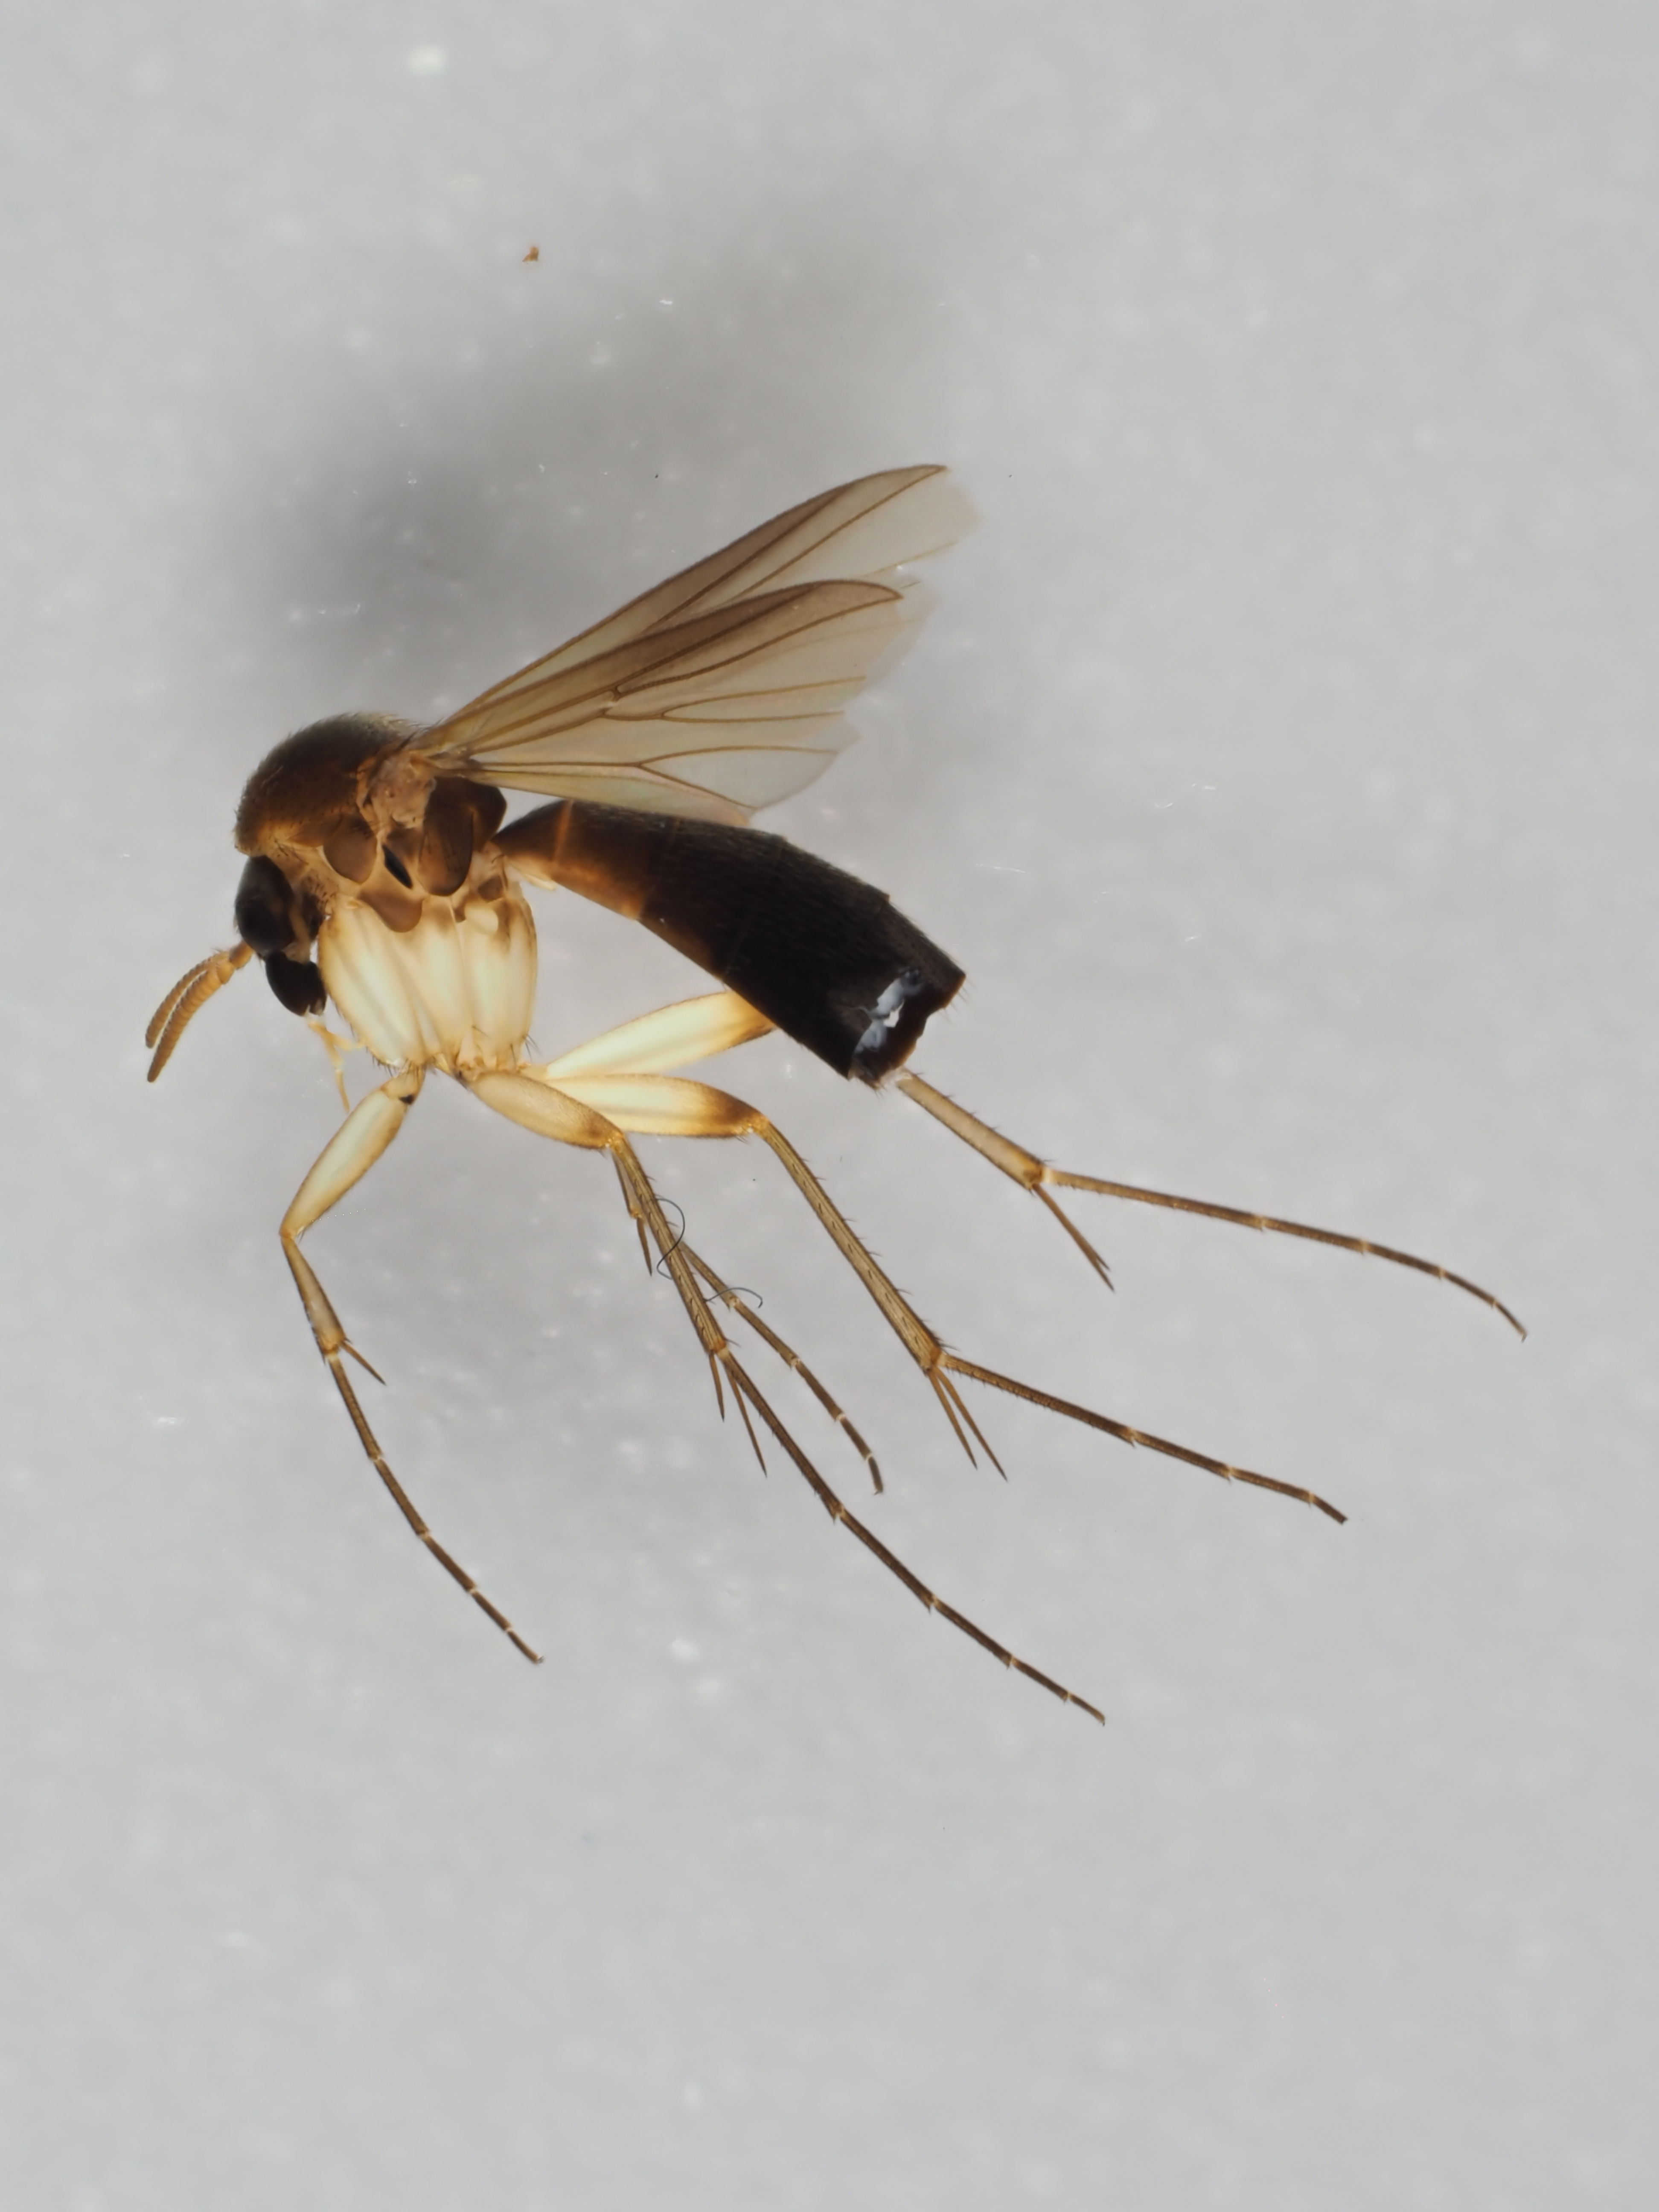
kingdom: Animalia
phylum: Arthropoda
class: Insecta
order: Diptera
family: Mycetophilidae
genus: Cordyla
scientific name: Cordyla semiflava
